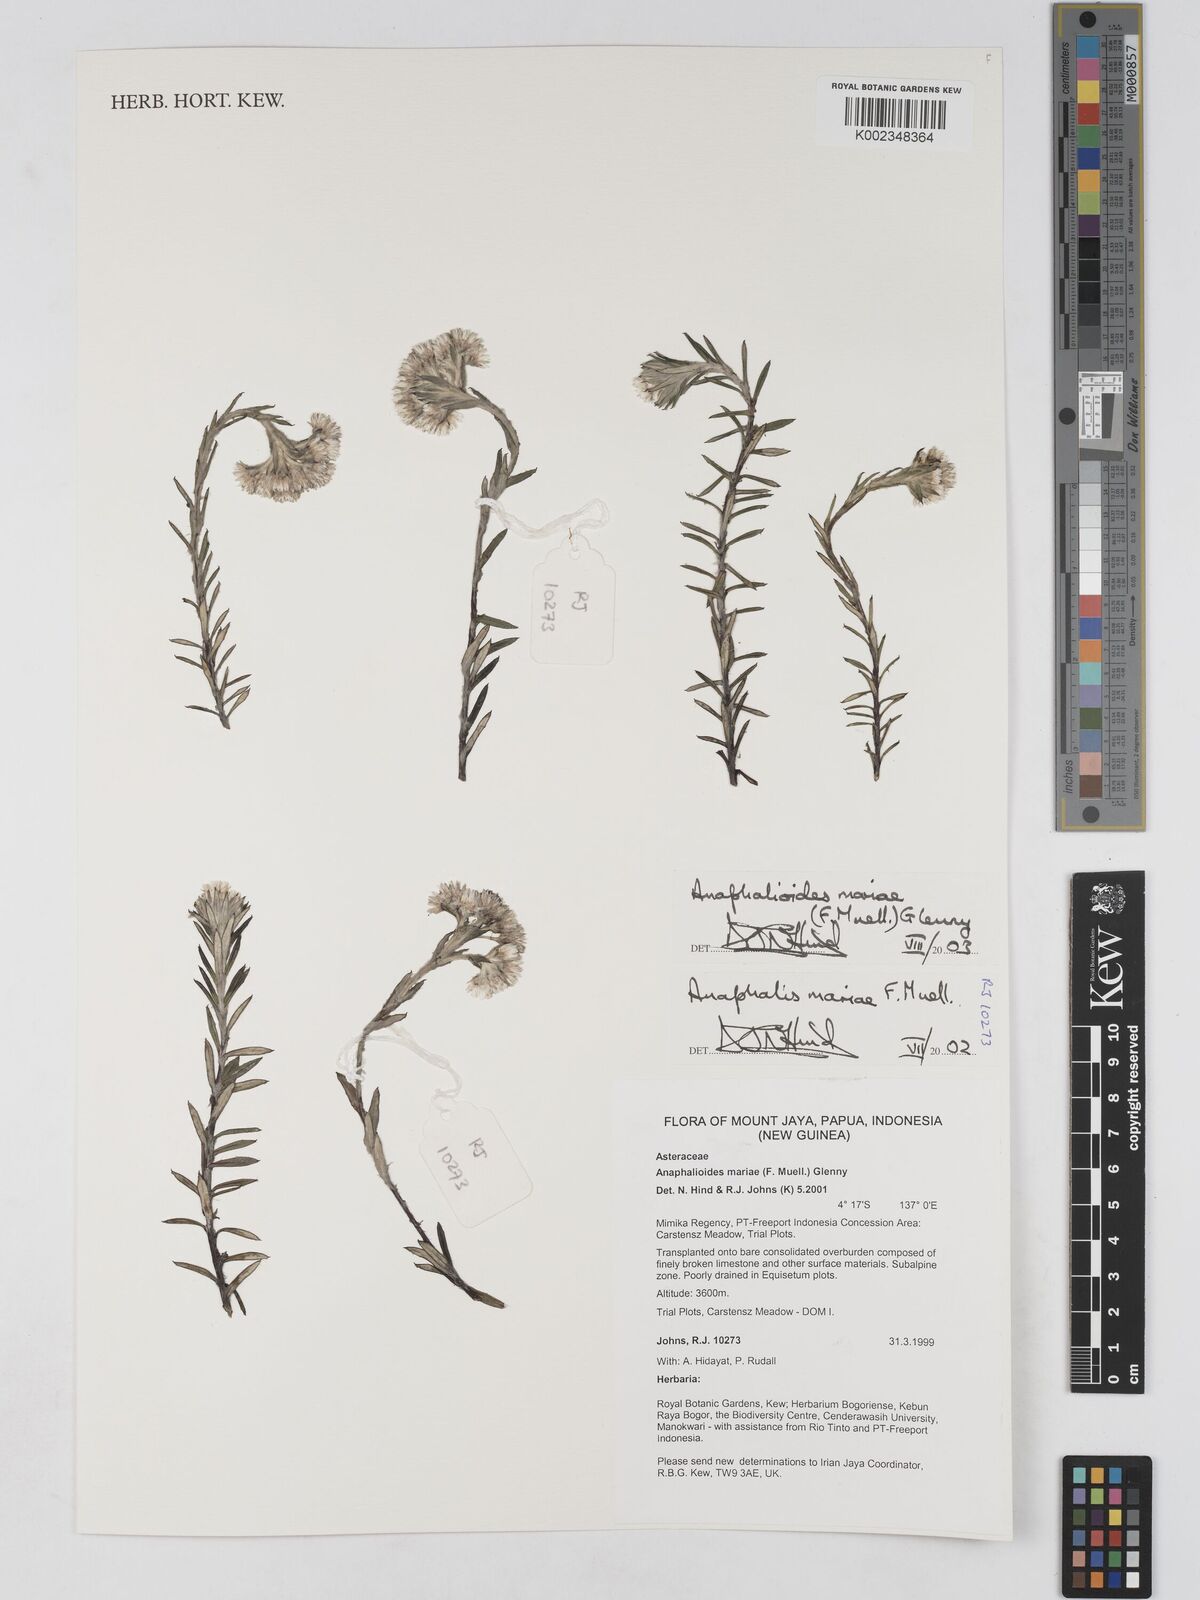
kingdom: Plantae
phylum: Tracheophyta
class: Magnoliopsida
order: Asterales
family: Asteraceae
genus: Anaphalioides
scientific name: Anaphalioides mariae
